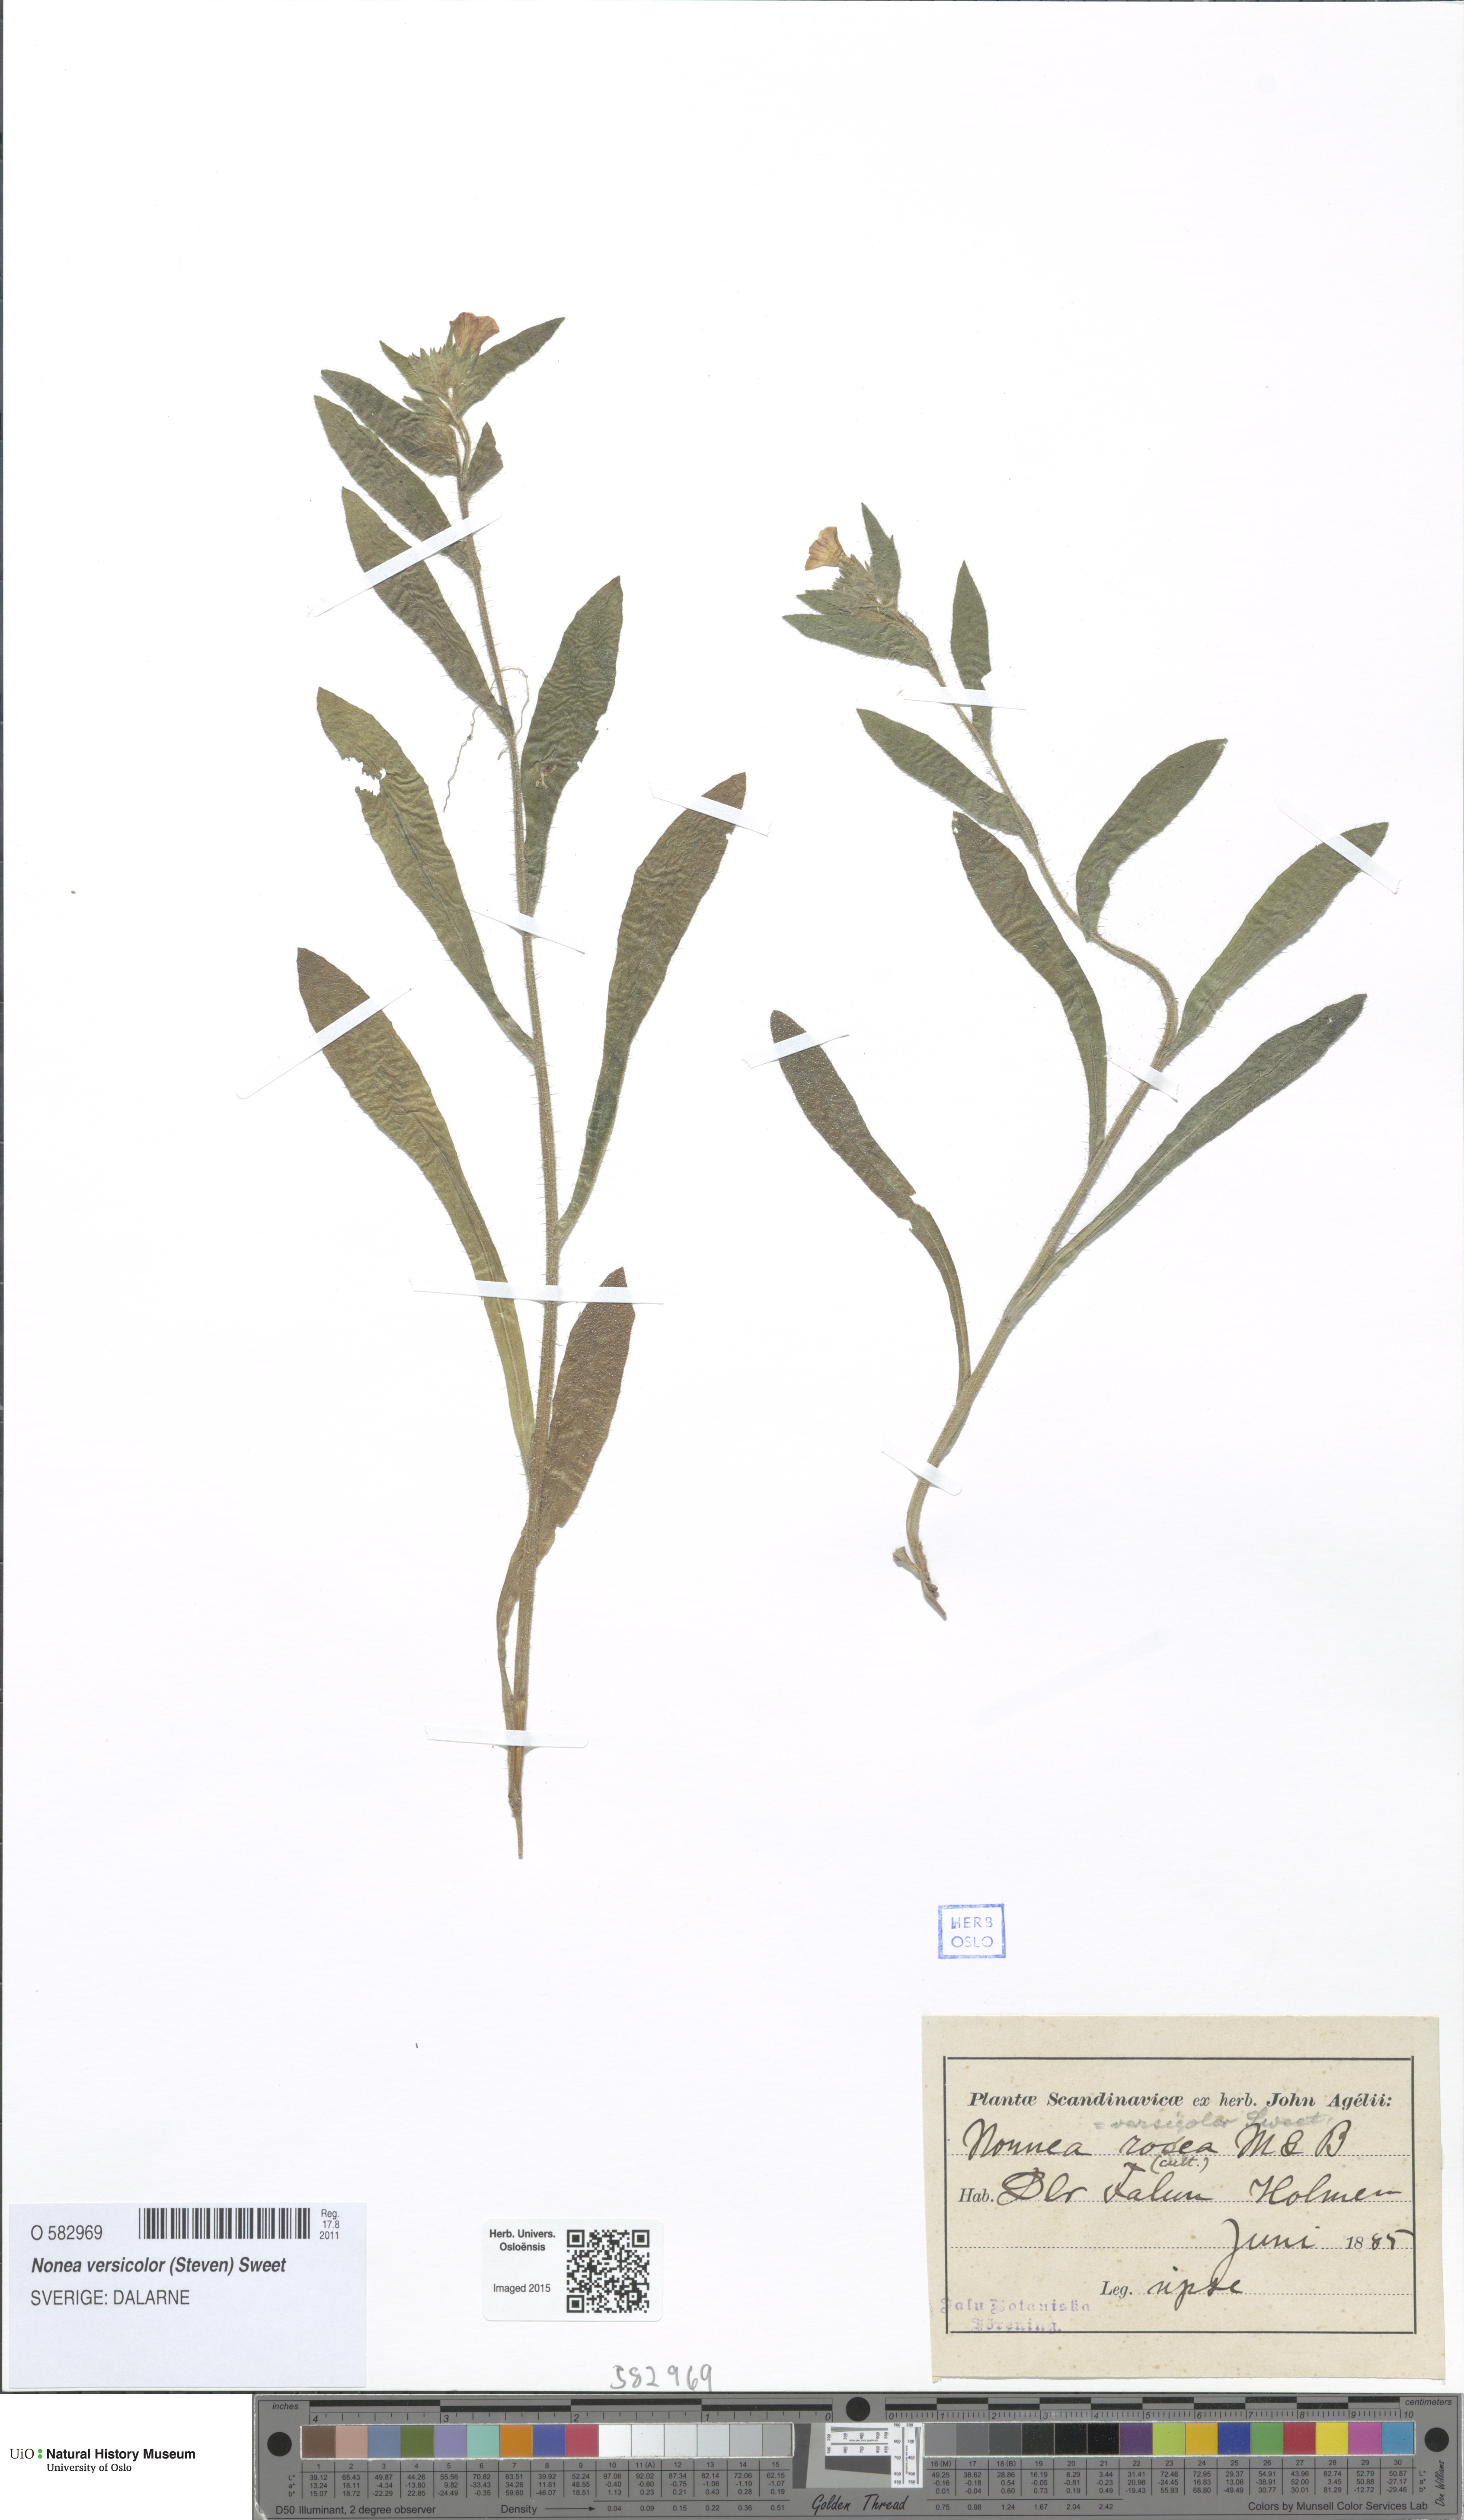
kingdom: Plantae
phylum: Tracheophyta
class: Magnoliopsida
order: Boraginales
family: Boraginaceae
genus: Nonea
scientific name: Nonea versicolor
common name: Varied monkswort
